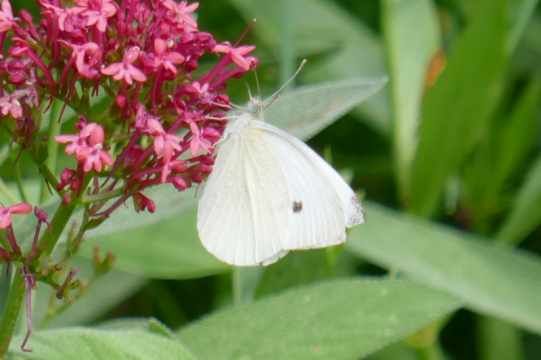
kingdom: Animalia
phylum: Arthropoda
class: Insecta
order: Lepidoptera
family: Pieridae
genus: Pieris
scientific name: Pieris rapae
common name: Cabbage White
